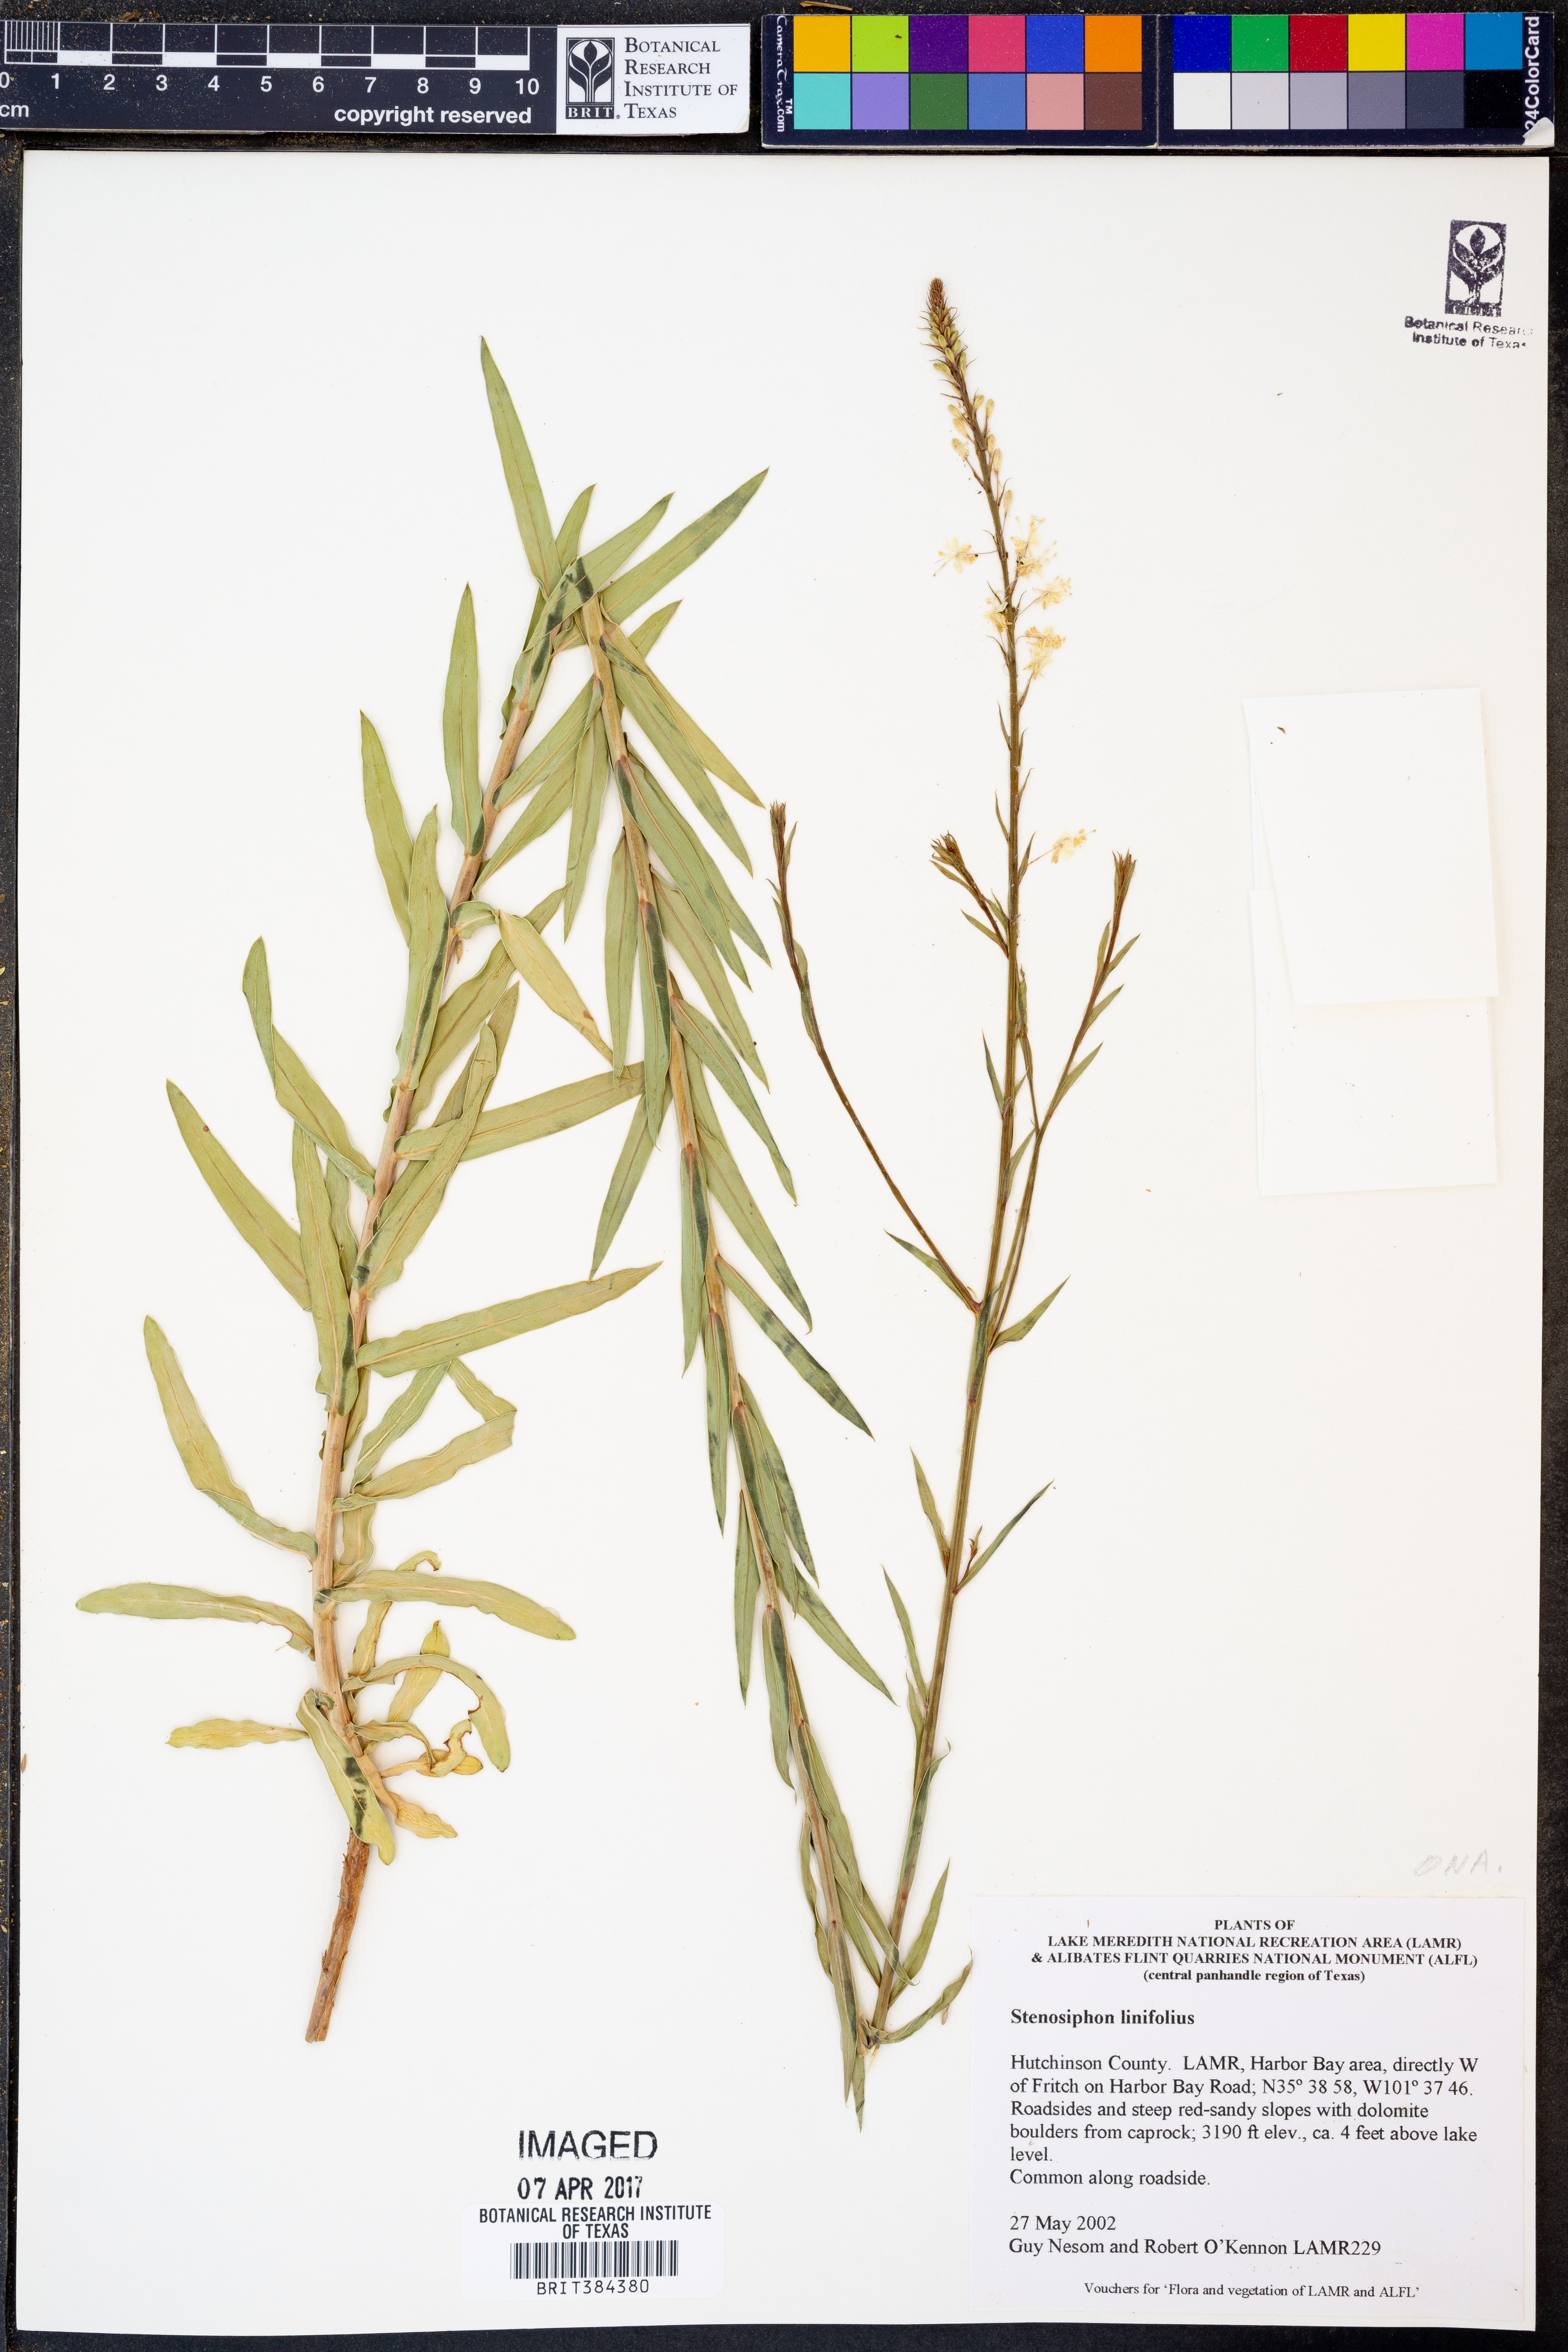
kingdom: Plantae
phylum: Tracheophyta
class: Magnoliopsida
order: Myrtales
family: Onagraceae
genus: Oenothera
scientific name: Oenothera glaucifolia
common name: False gaura
